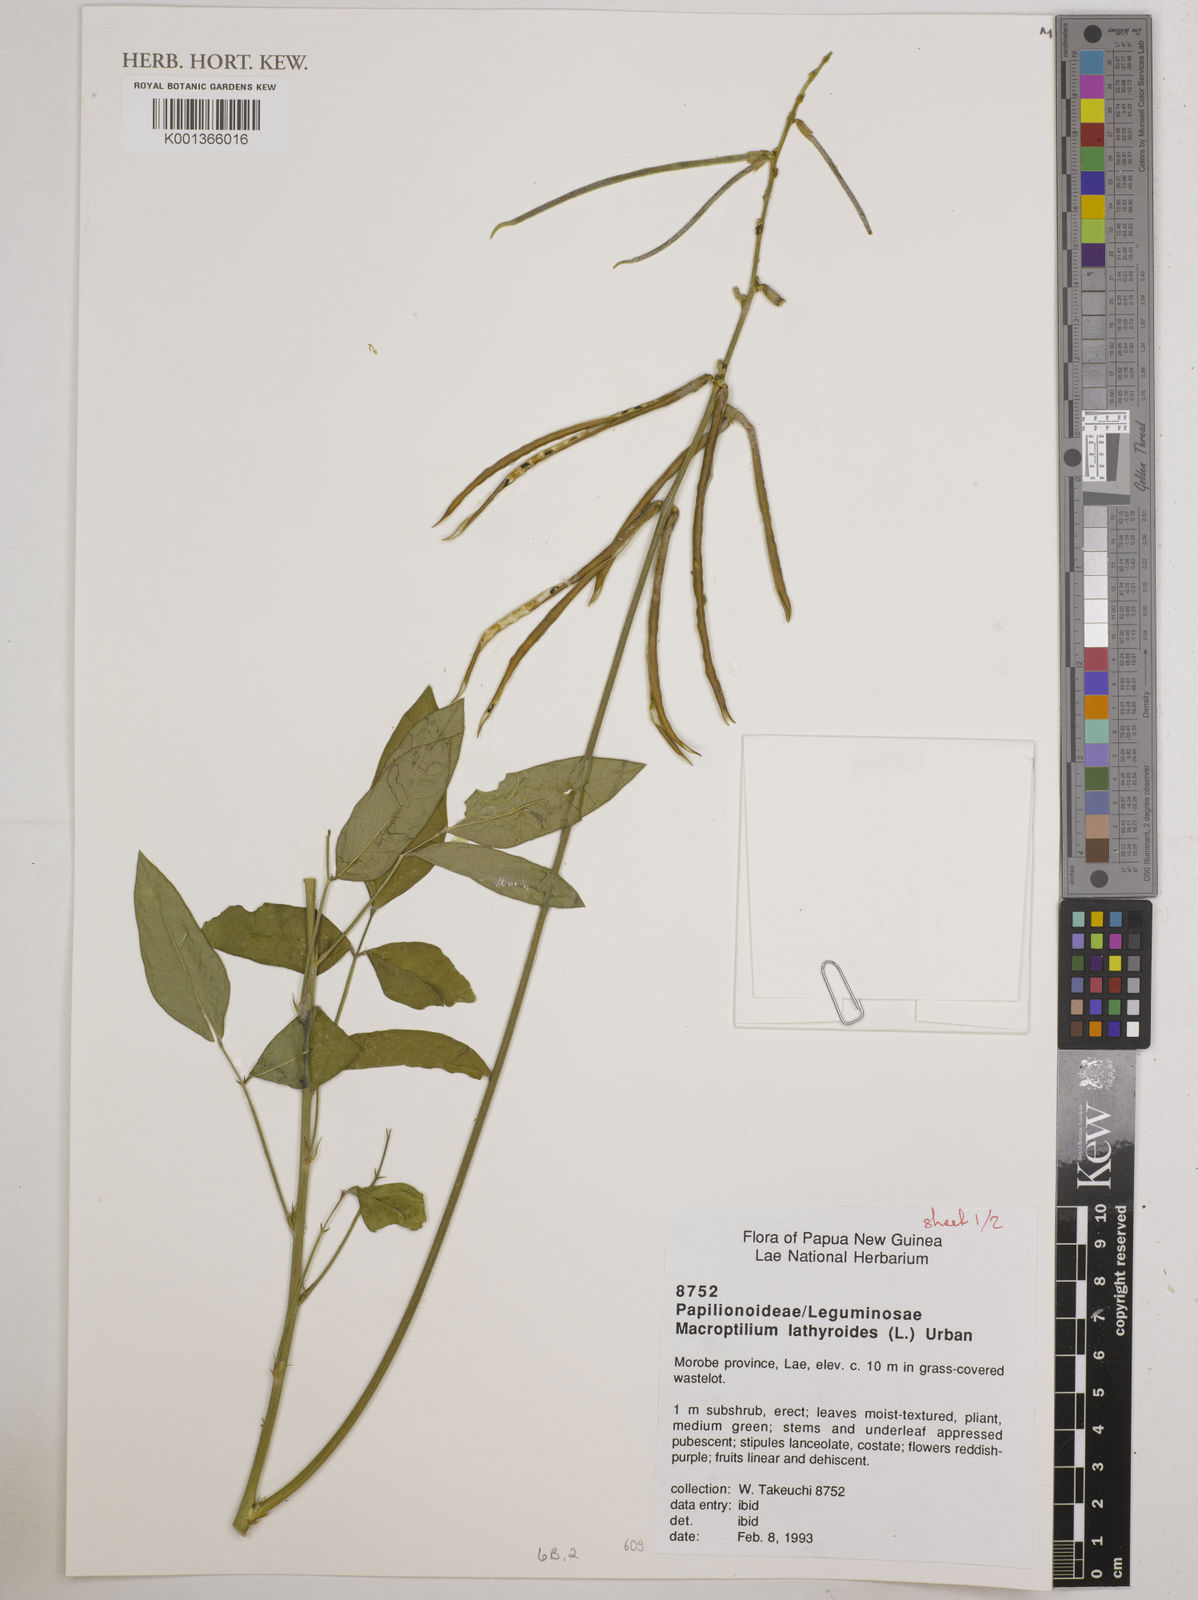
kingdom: Plantae
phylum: Tracheophyta
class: Magnoliopsida
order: Fabales
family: Fabaceae
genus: Macroptilium
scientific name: Macroptilium lathyroides
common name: Wild bushbean
